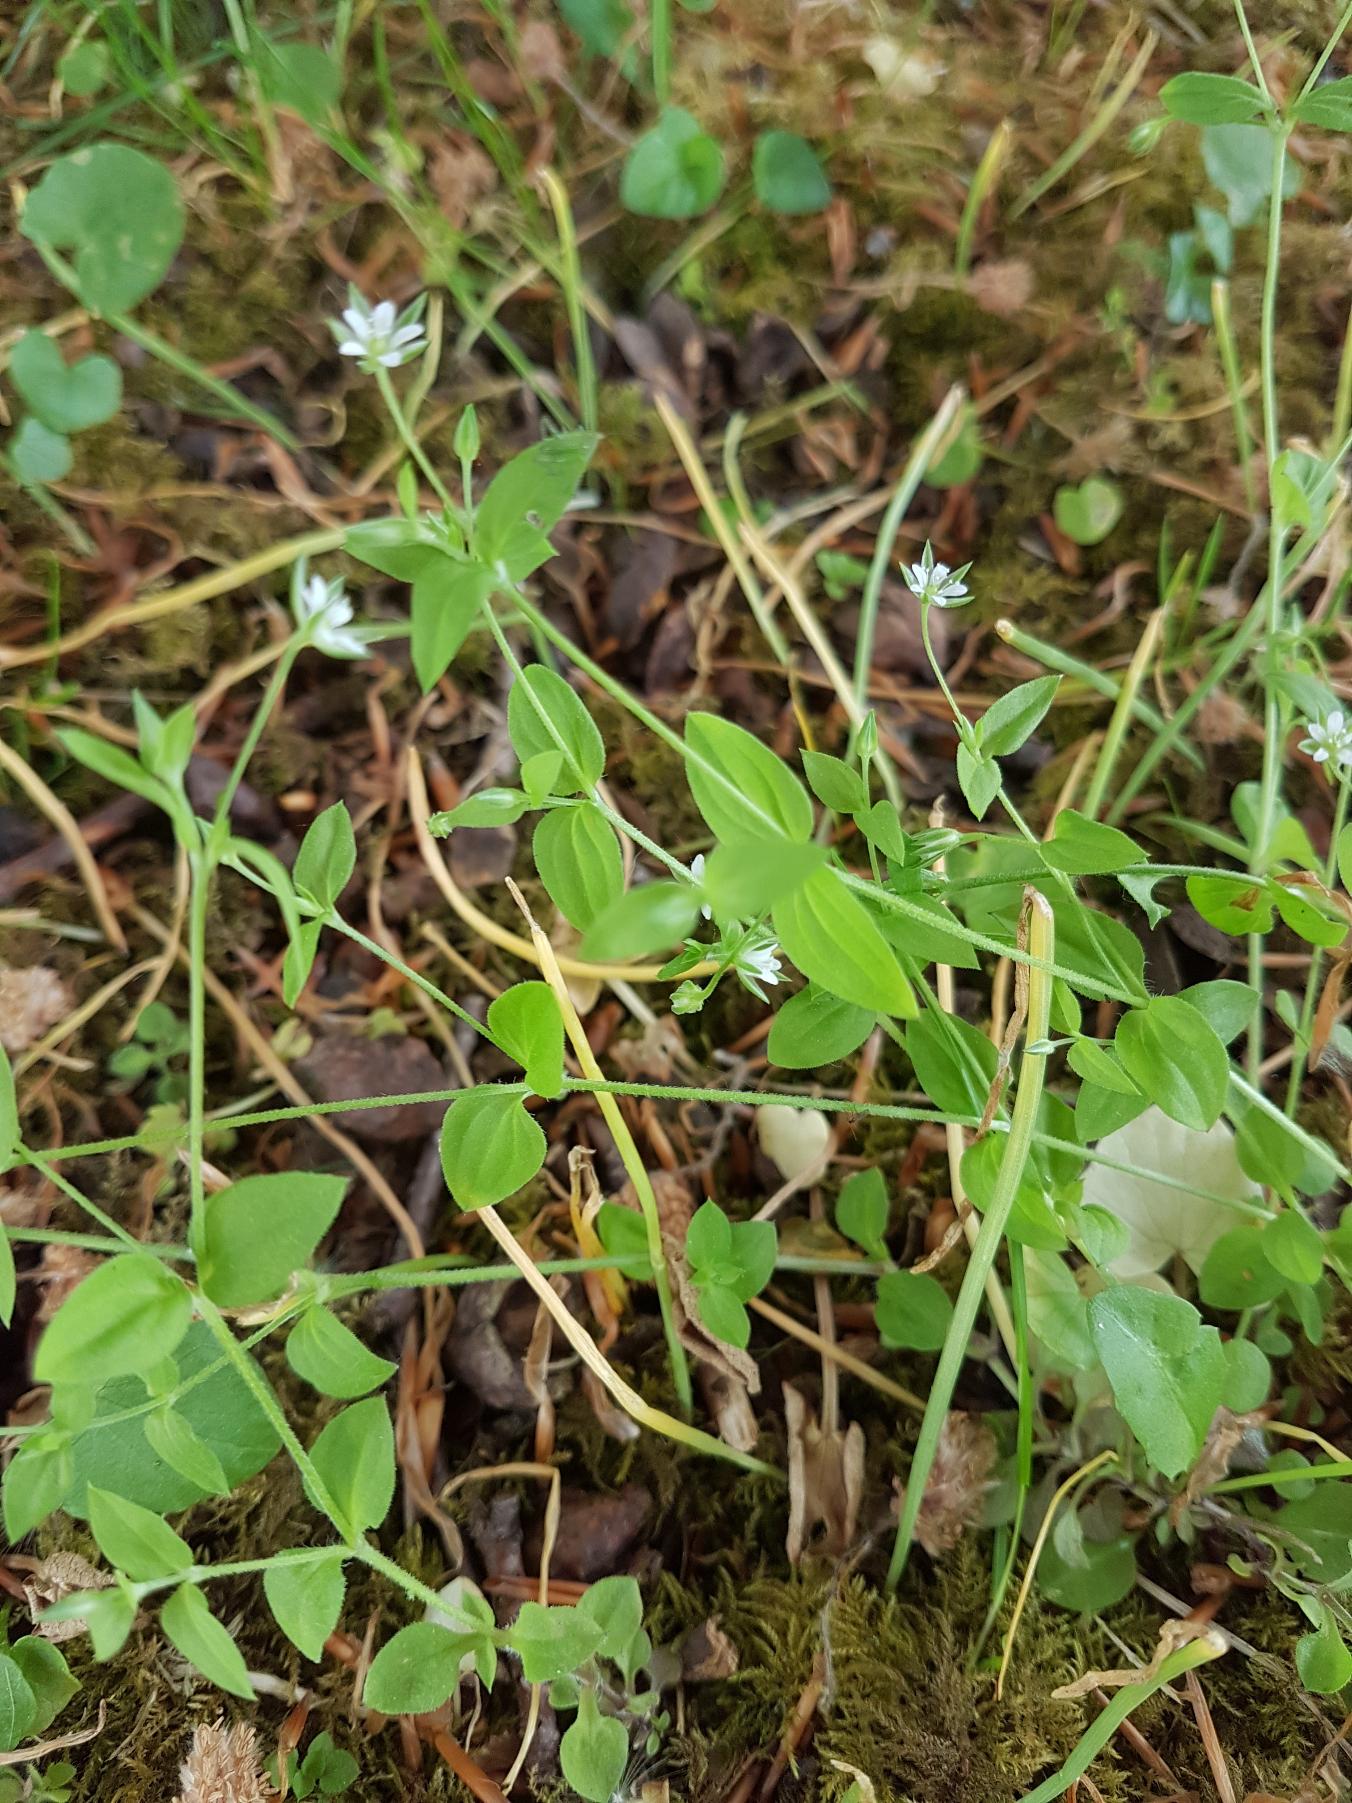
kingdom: Plantae
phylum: Tracheophyta
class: Magnoliopsida
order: Caryophyllales
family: Caryophyllaceae
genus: Moehringia
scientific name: Moehringia trinervia
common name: Skovarve
